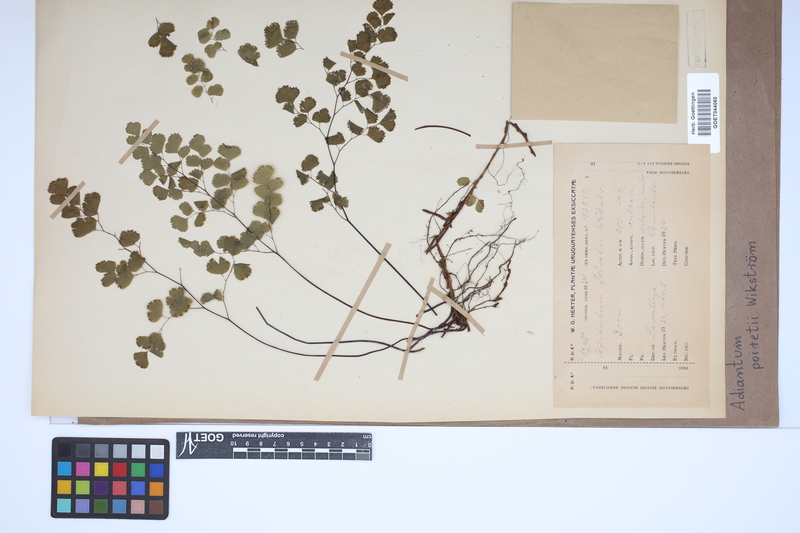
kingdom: Plantae
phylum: Tracheophyta
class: Polypodiopsida
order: Polypodiales
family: Pteridaceae
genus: Adiantum
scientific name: Adiantum poiretii
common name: Mexican maidenhair
